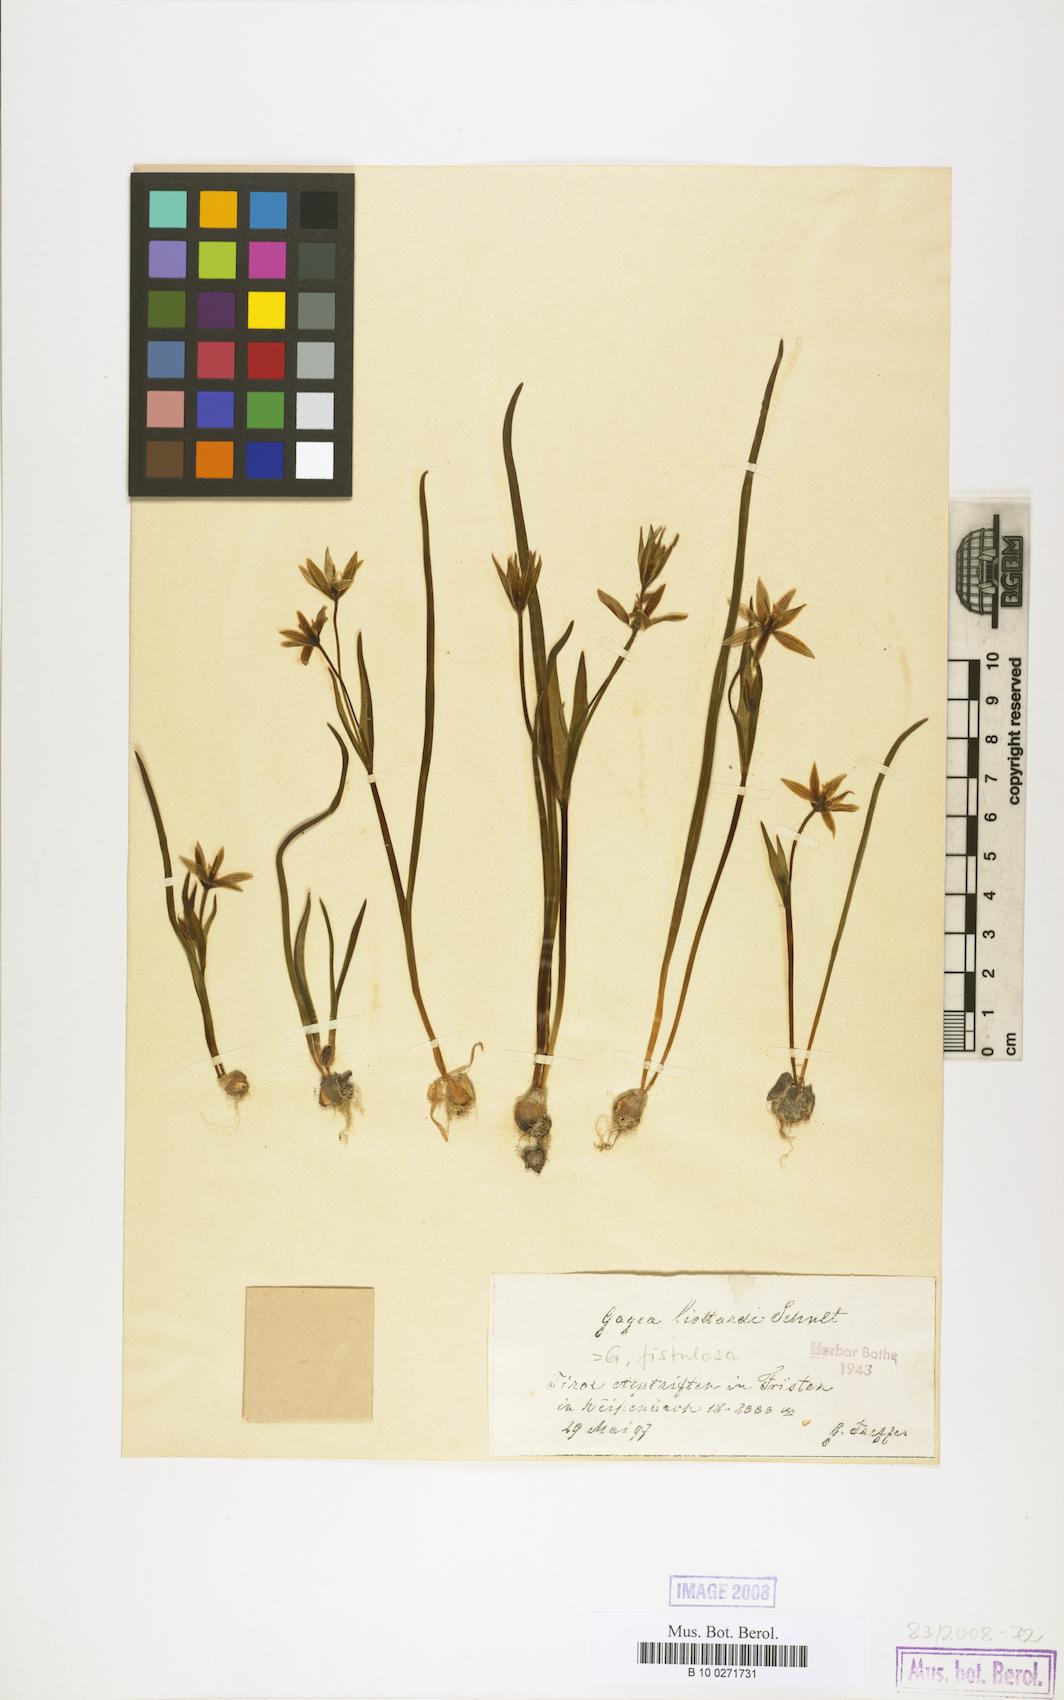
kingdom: Plantae
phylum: Tracheophyta
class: Liliopsida
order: Liliales
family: Liliaceae
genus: Gagea
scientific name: Gagea bohemica
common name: Early star-of-bethlehem
